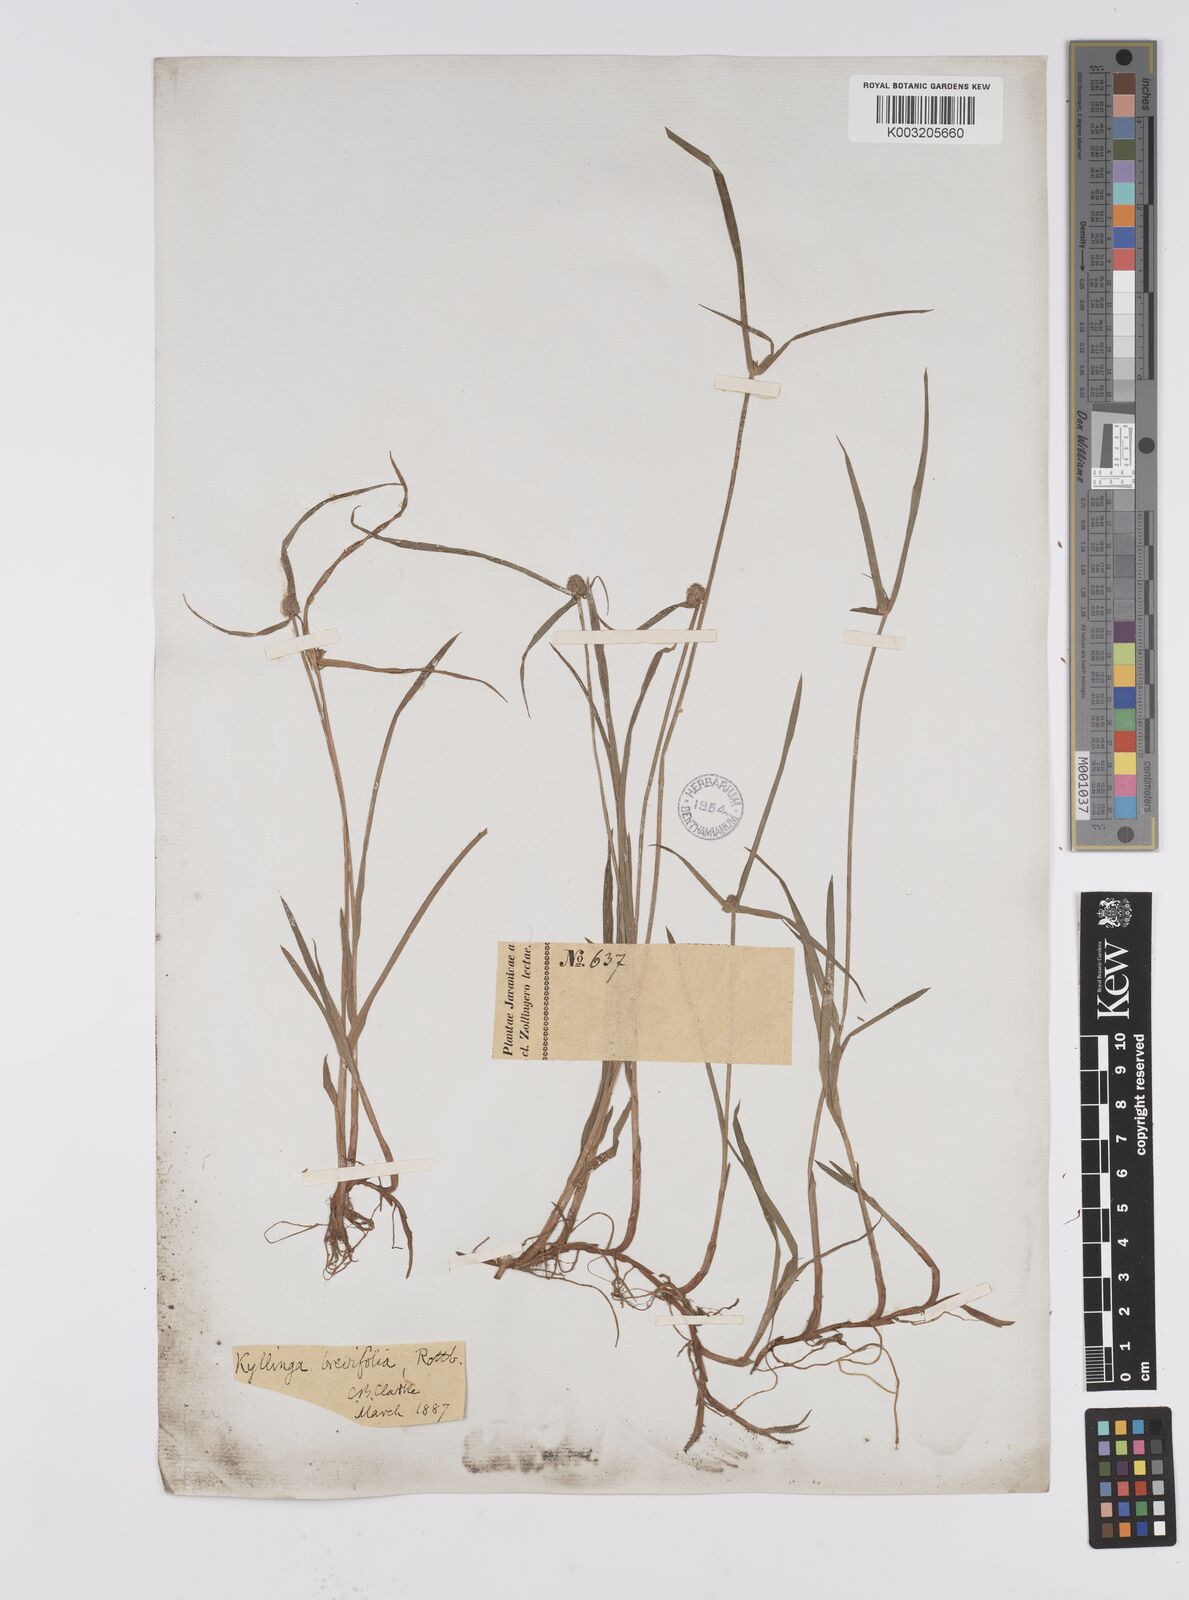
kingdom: Plantae
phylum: Tracheophyta
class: Liliopsida
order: Poales
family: Cyperaceae
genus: Cyperus
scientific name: Cyperus brevifolius
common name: Globe kyllinga
